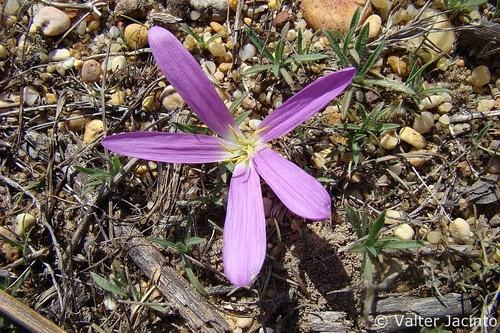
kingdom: Plantae
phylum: Tracheophyta
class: Liliopsida
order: Liliales
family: Colchicaceae
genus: Colchicum
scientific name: Colchicum filifolium
